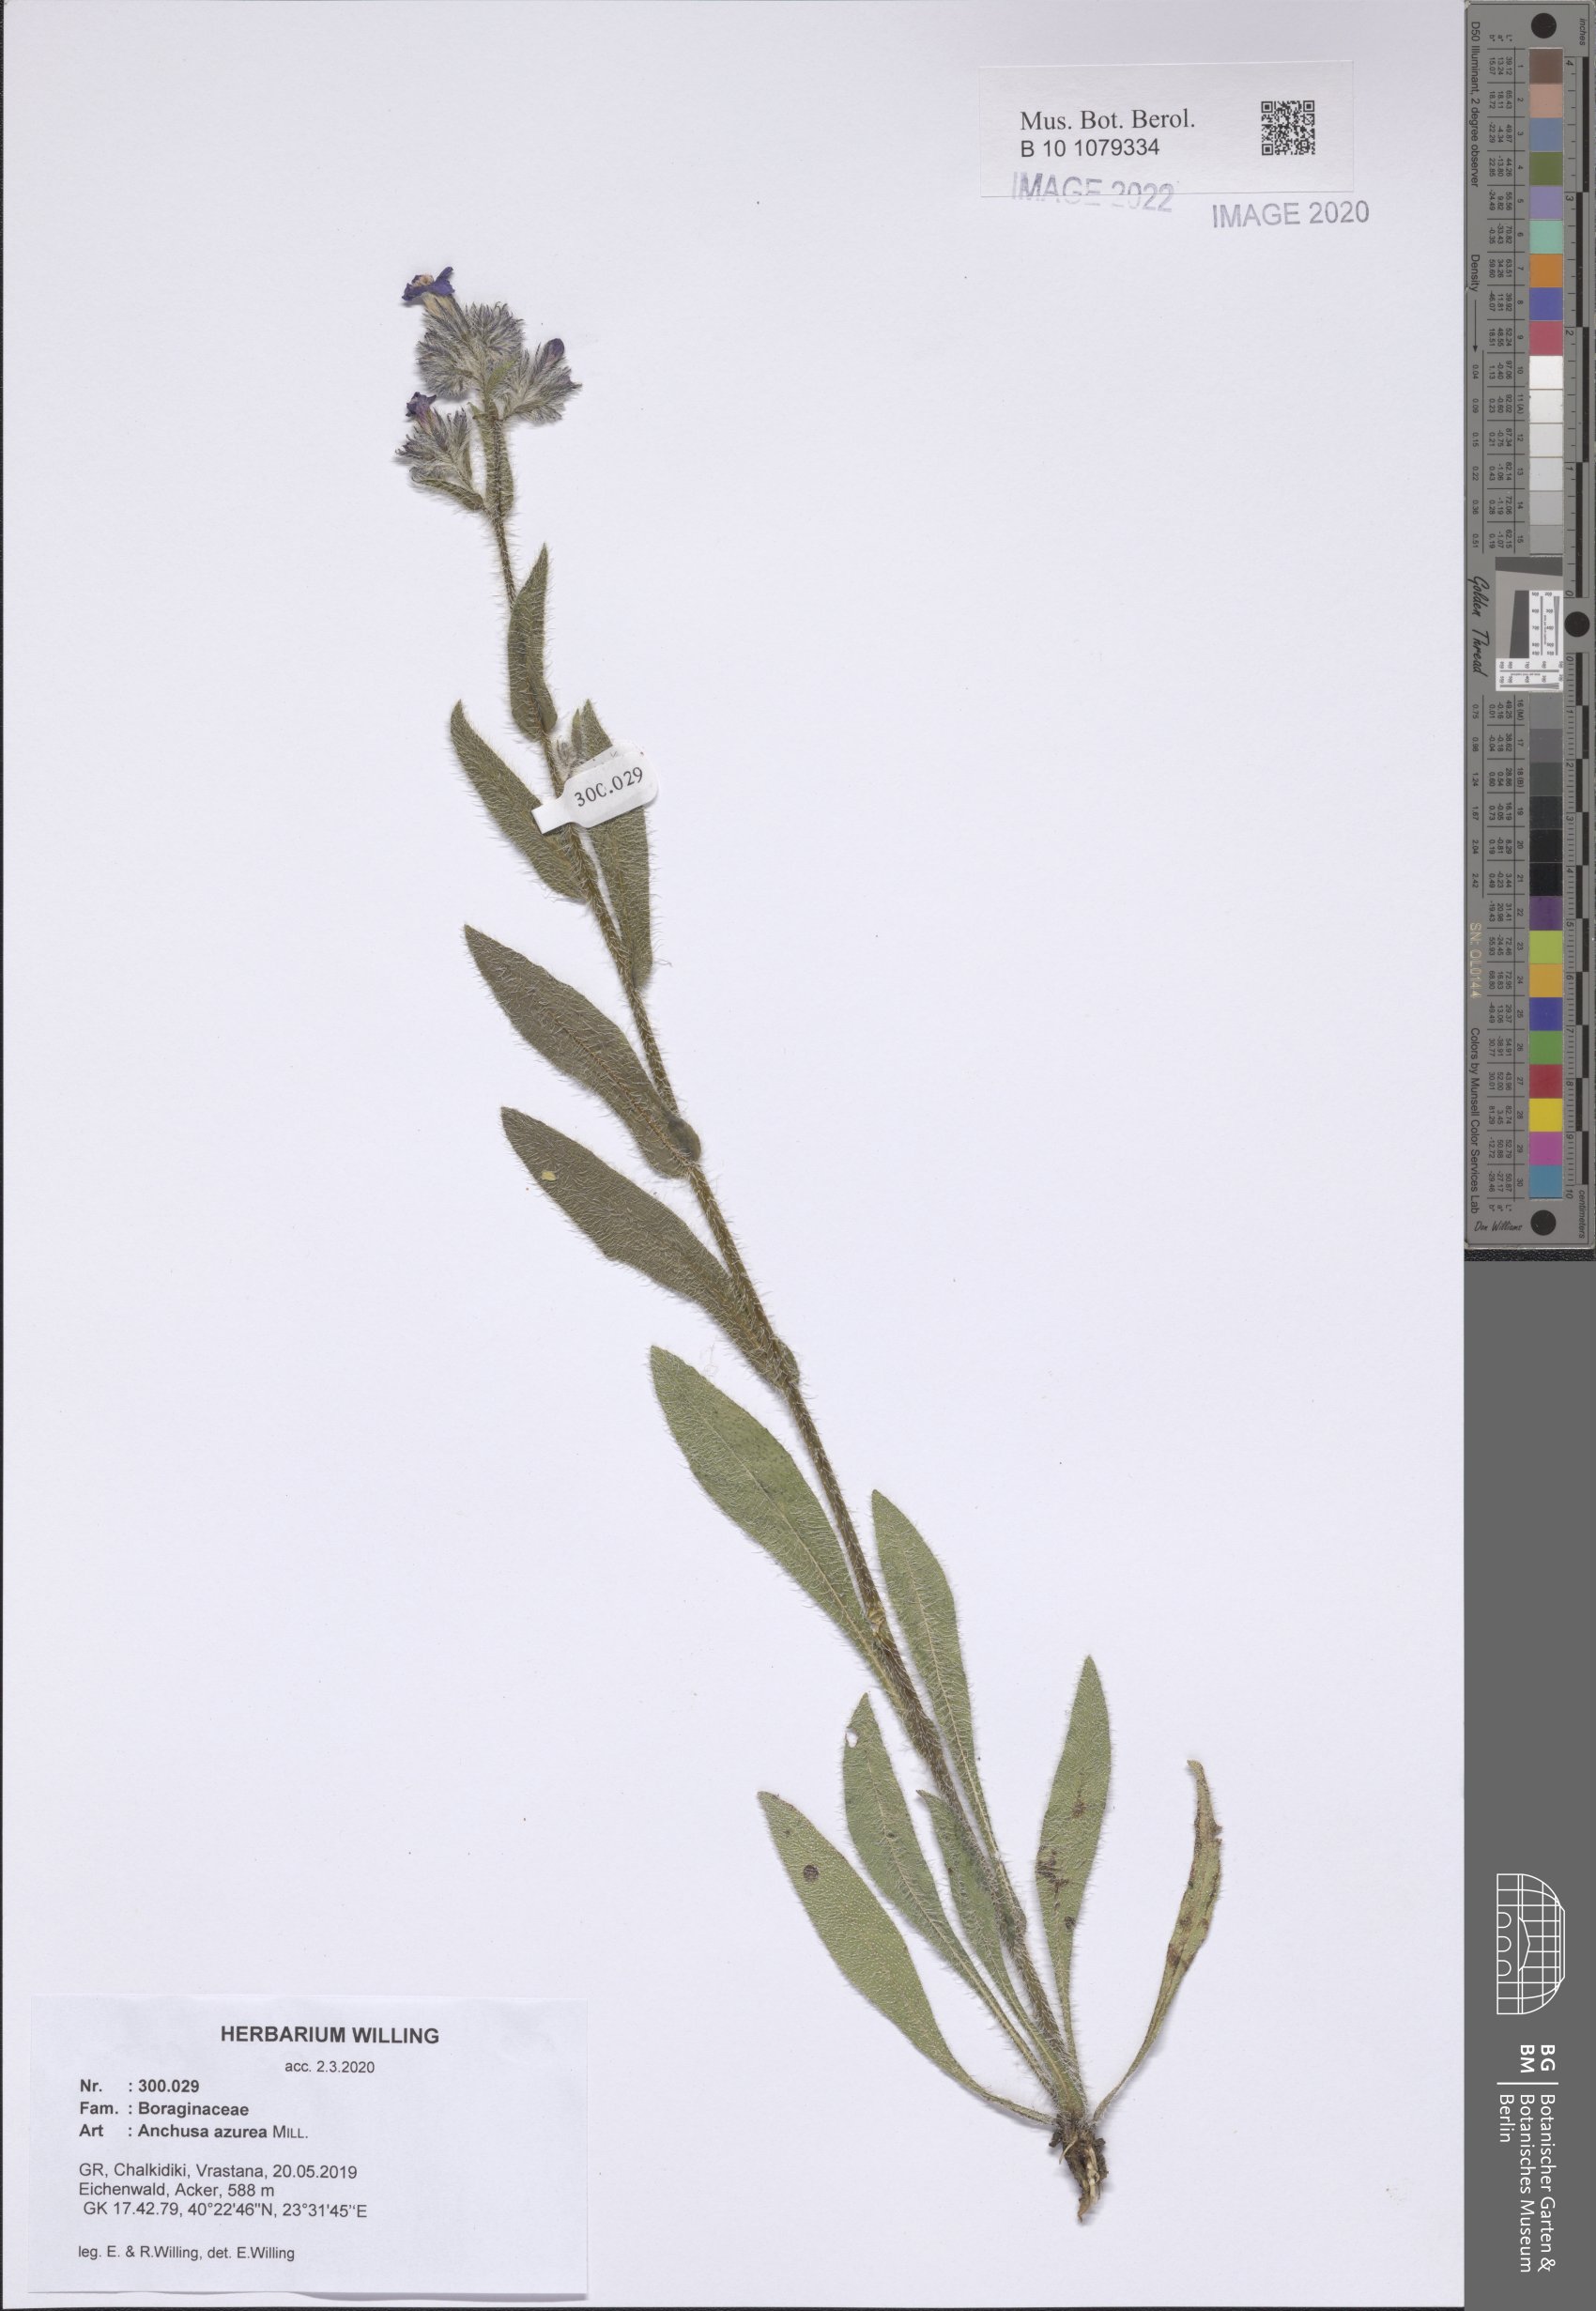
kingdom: Plantae
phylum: Tracheophyta
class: Magnoliopsida
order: Boraginales
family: Boraginaceae
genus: Anchusa
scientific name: Anchusa azurea
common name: Garden anchusa
